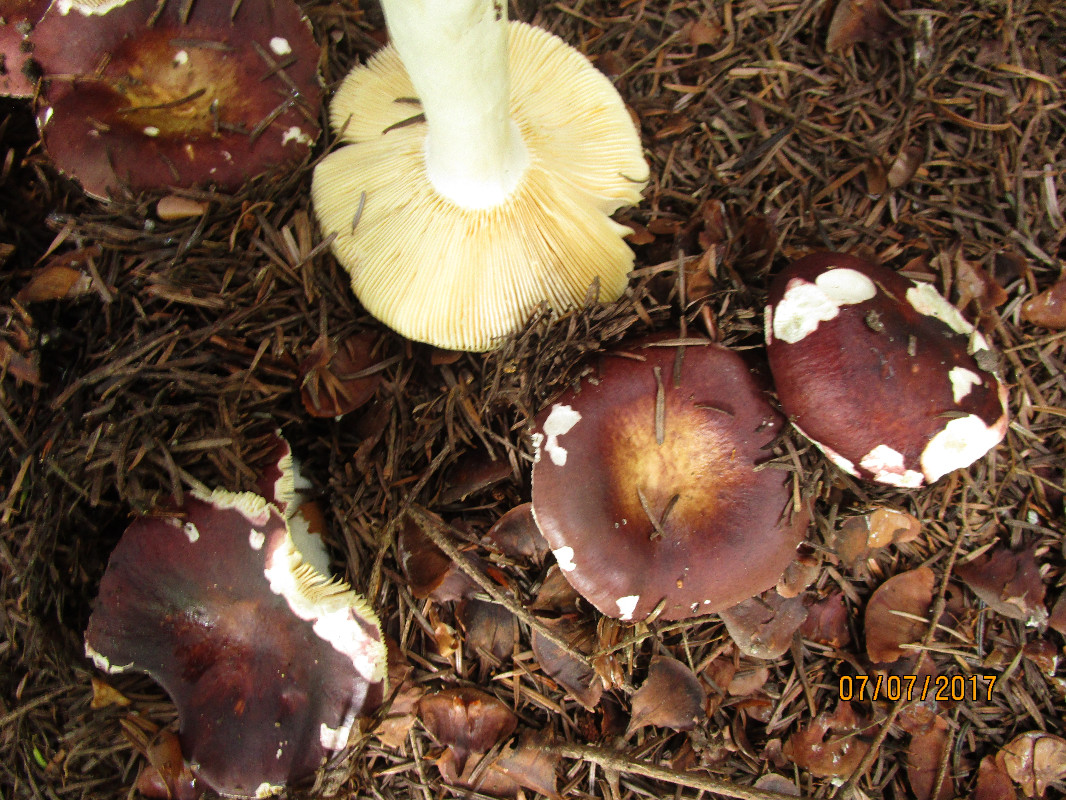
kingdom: Fungi
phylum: Basidiomycota
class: Agaricomycetes
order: Russulales
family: Russulaceae
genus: Russula
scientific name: Russula integra
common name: mandel-skørhat
